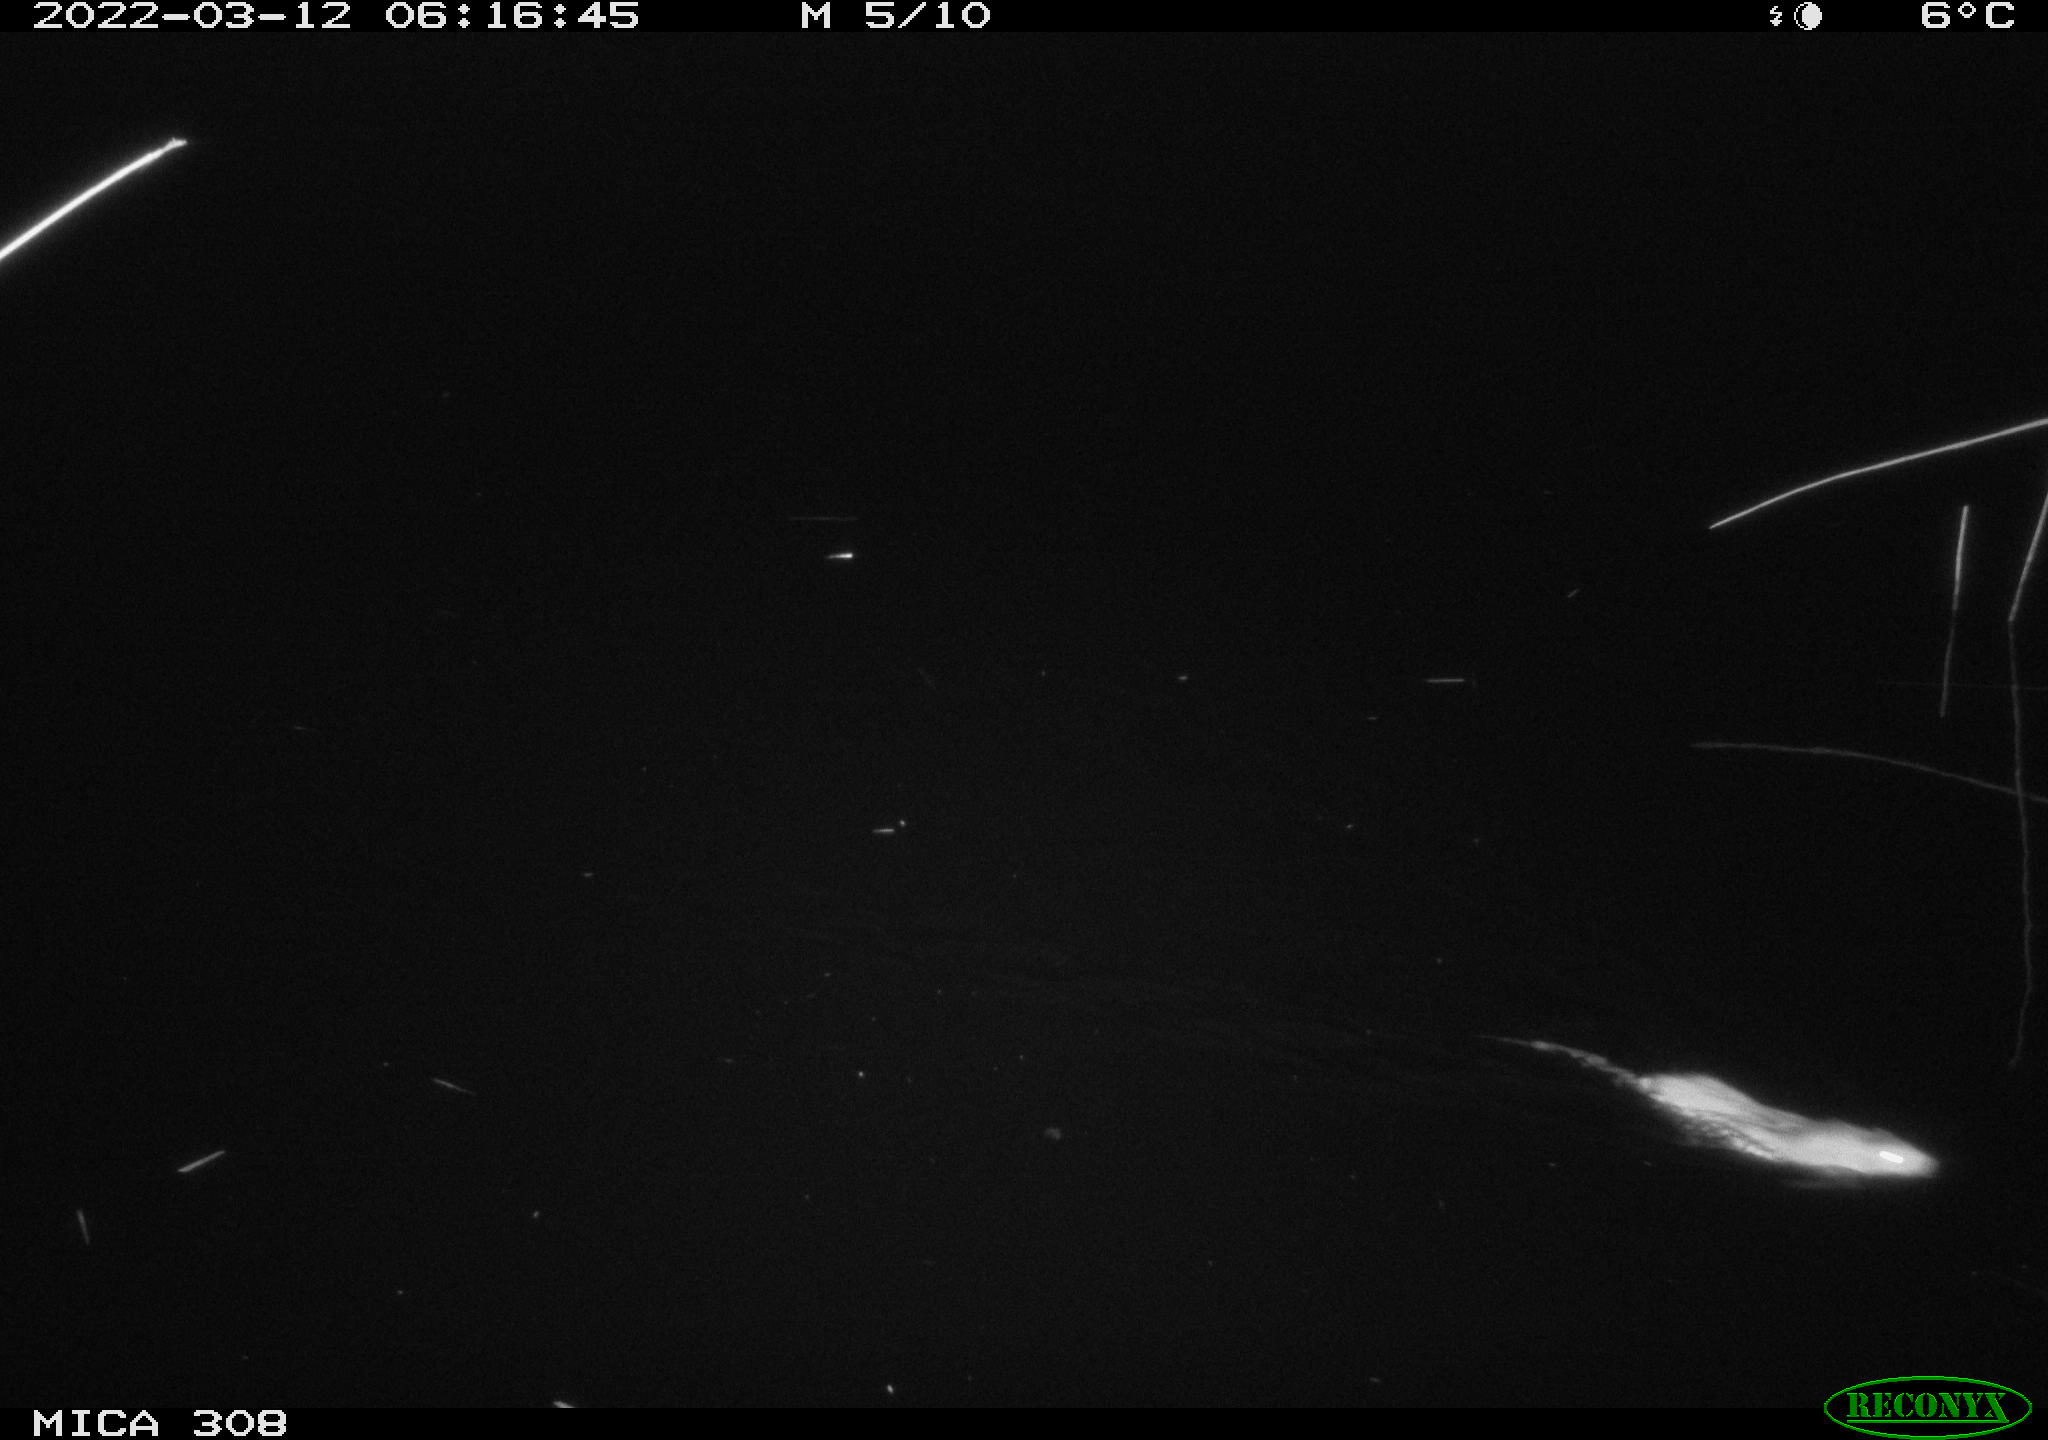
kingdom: Animalia
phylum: Chordata
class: Mammalia
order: Rodentia
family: Cricetidae
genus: Ondatra
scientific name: Ondatra zibethicus
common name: Muskrat
